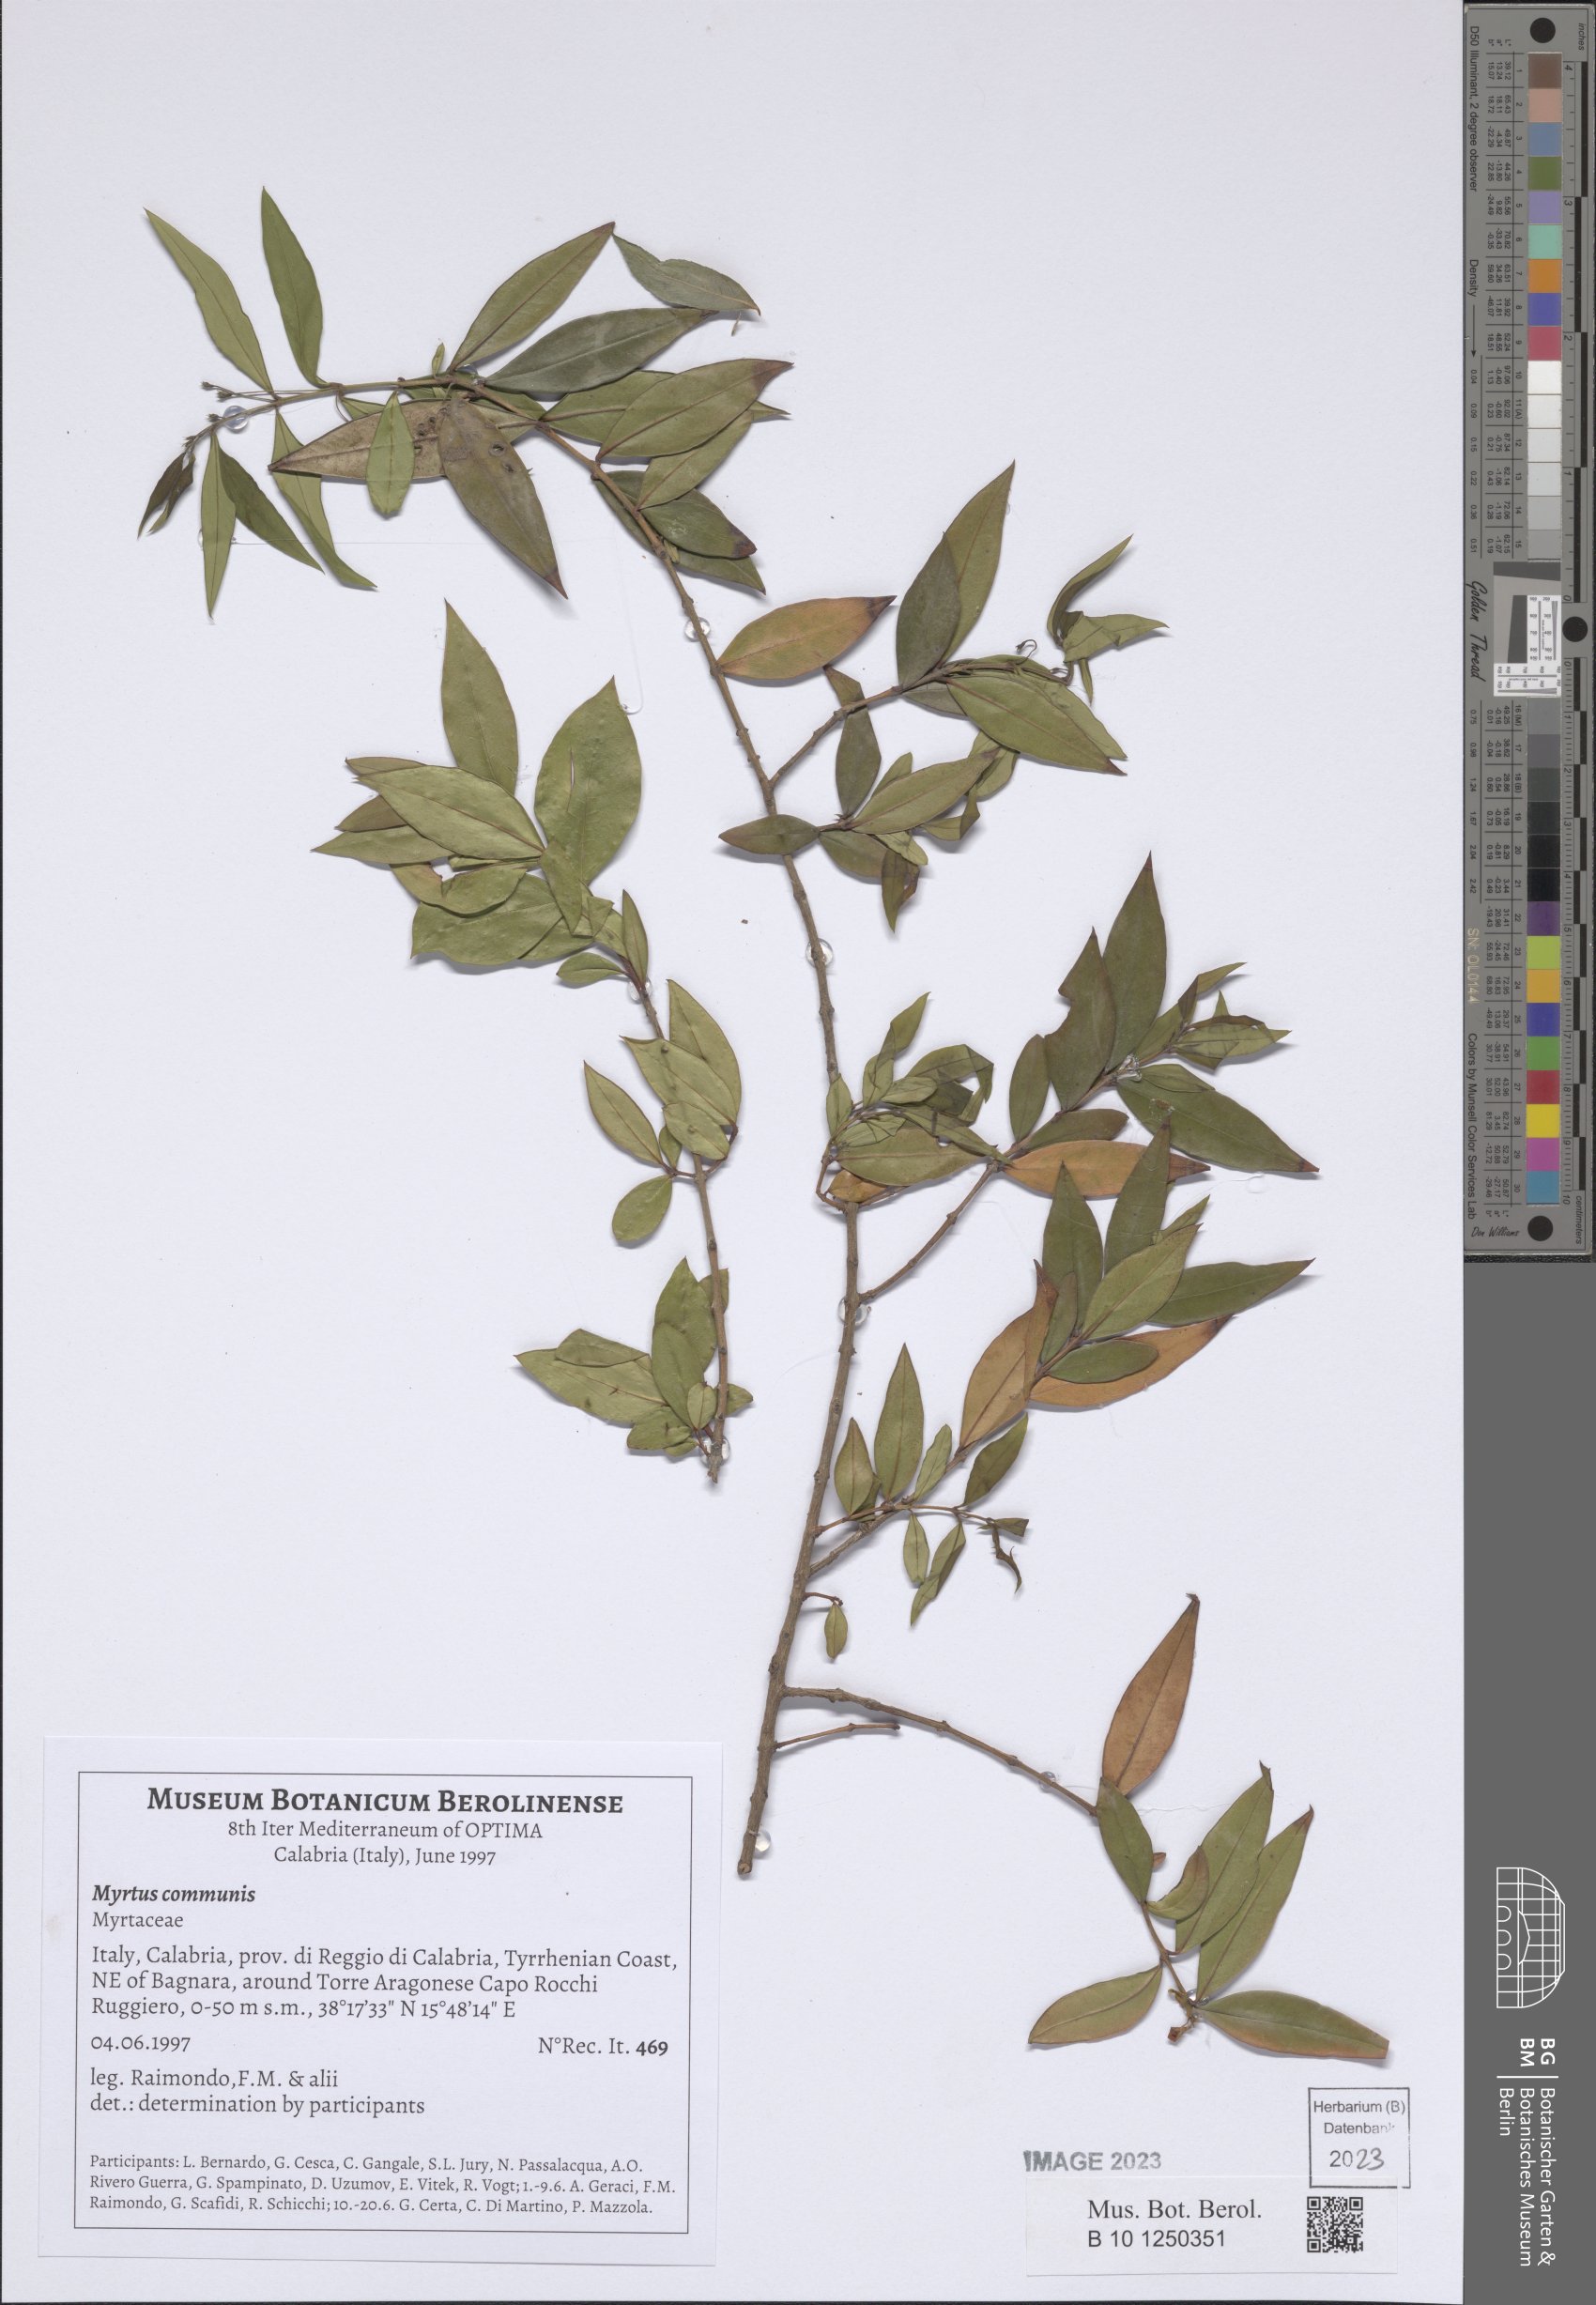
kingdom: Plantae
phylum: Tracheophyta
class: Magnoliopsida
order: Myrtales
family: Myrtaceae
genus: Myrtus
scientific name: Myrtus communis
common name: Myrtle
